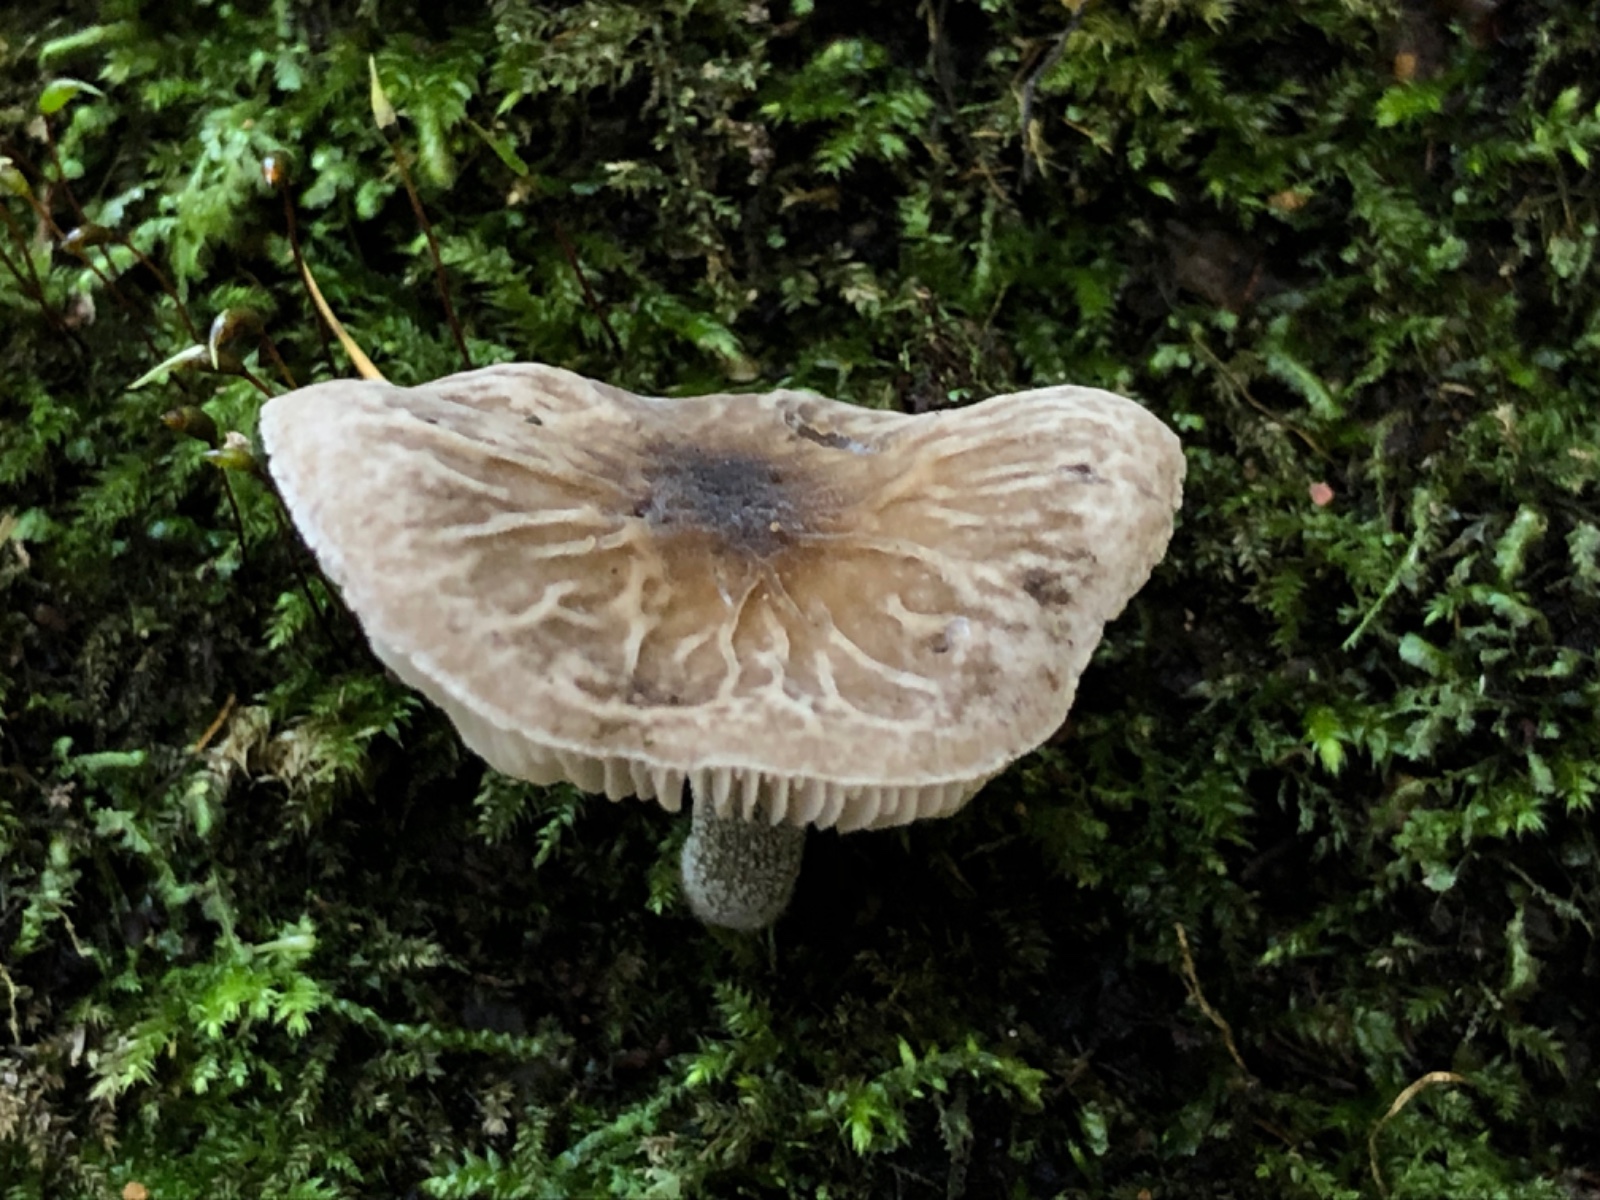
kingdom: Fungi
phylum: Basidiomycota
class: Agaricomycetes
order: Agaricales
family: Pluteaceae
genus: Pluteus
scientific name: Pluteus diverticulatus
